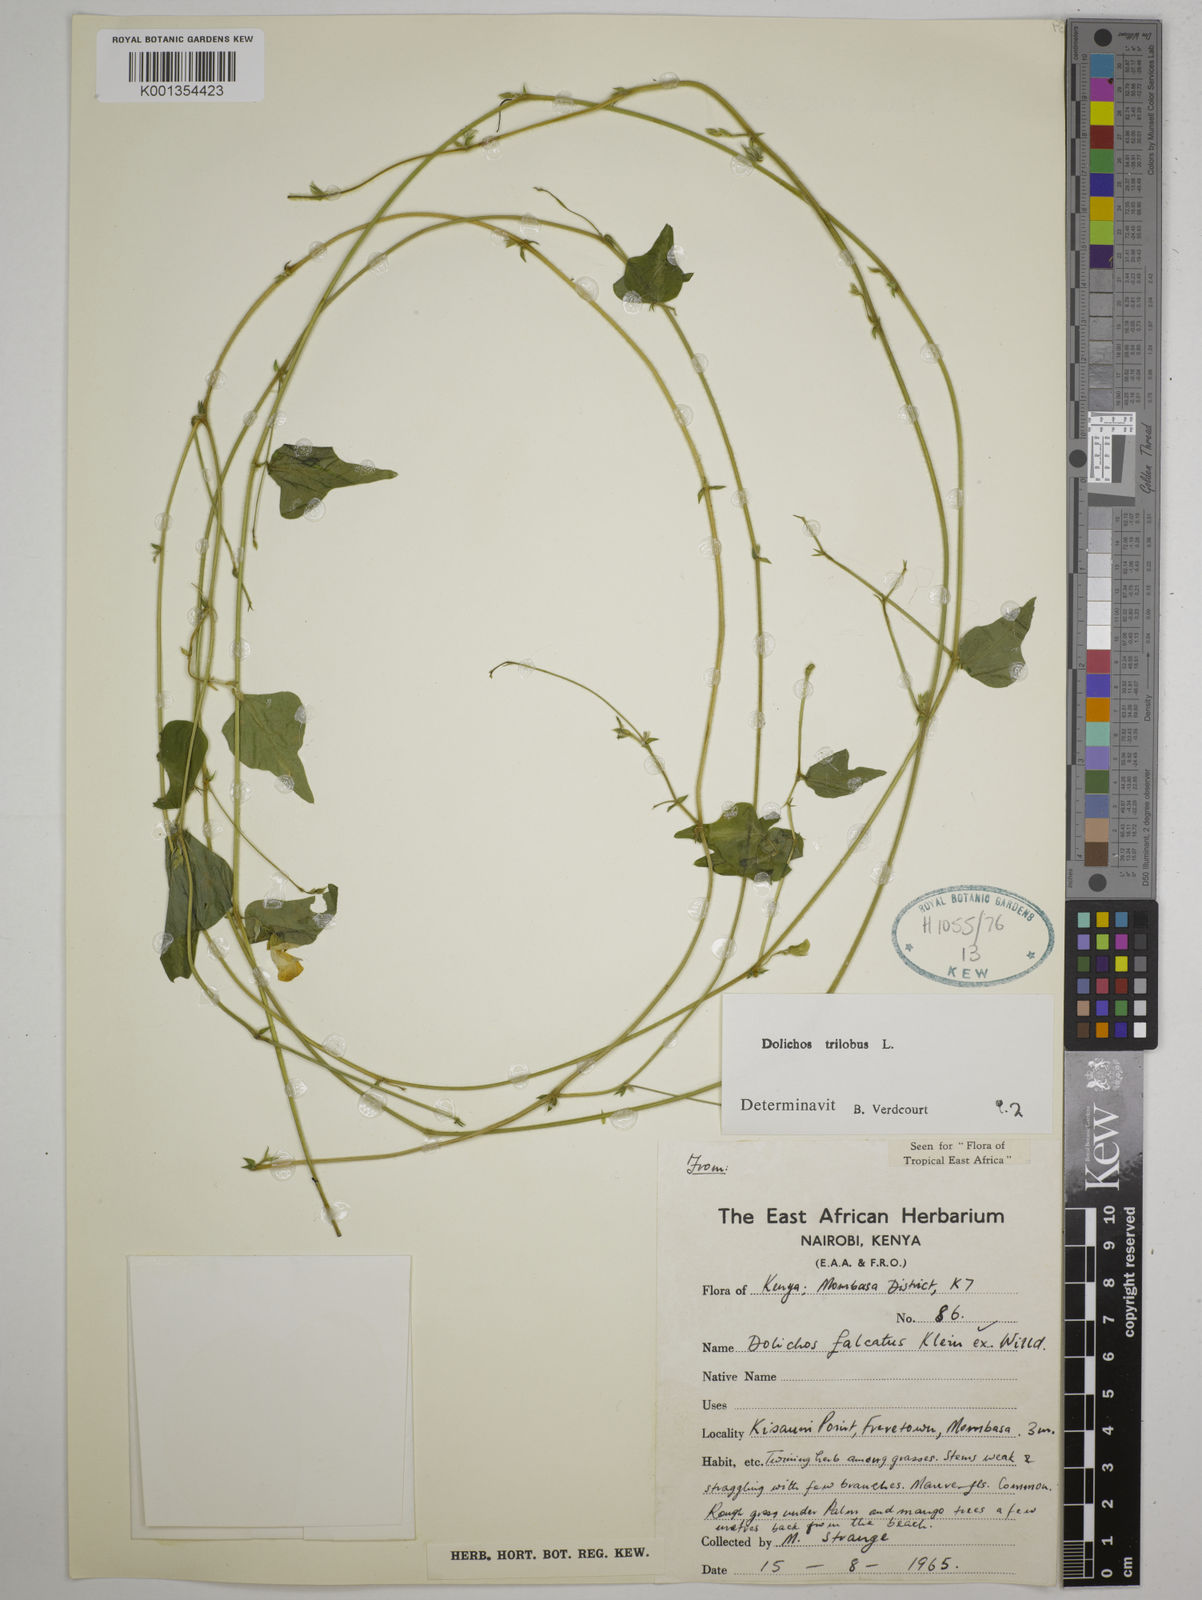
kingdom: Plantae
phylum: Tracheophyta
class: Magnoliopsida
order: Fabales
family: Fabaceae
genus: Dolichos
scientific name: Dolichos
